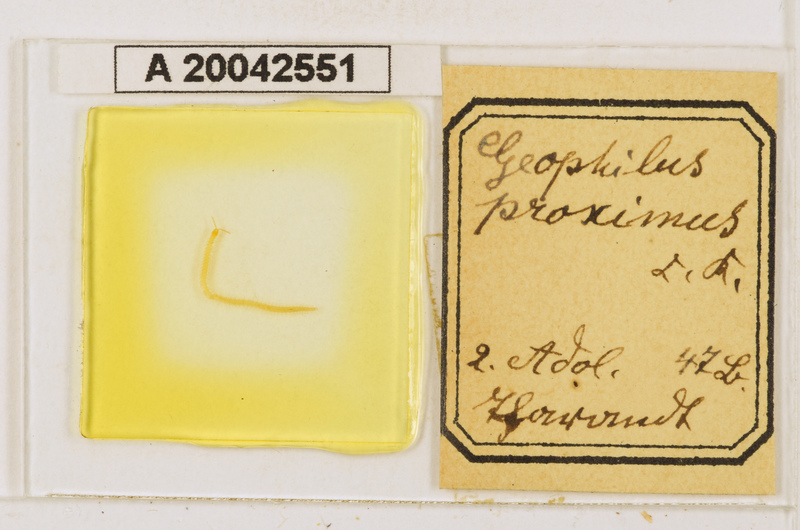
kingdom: Animalia
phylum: Arthropoda
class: Chilopoda
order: Geophilomorpha
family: Geophilidae
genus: Geophilus
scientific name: Geophilus proximus
